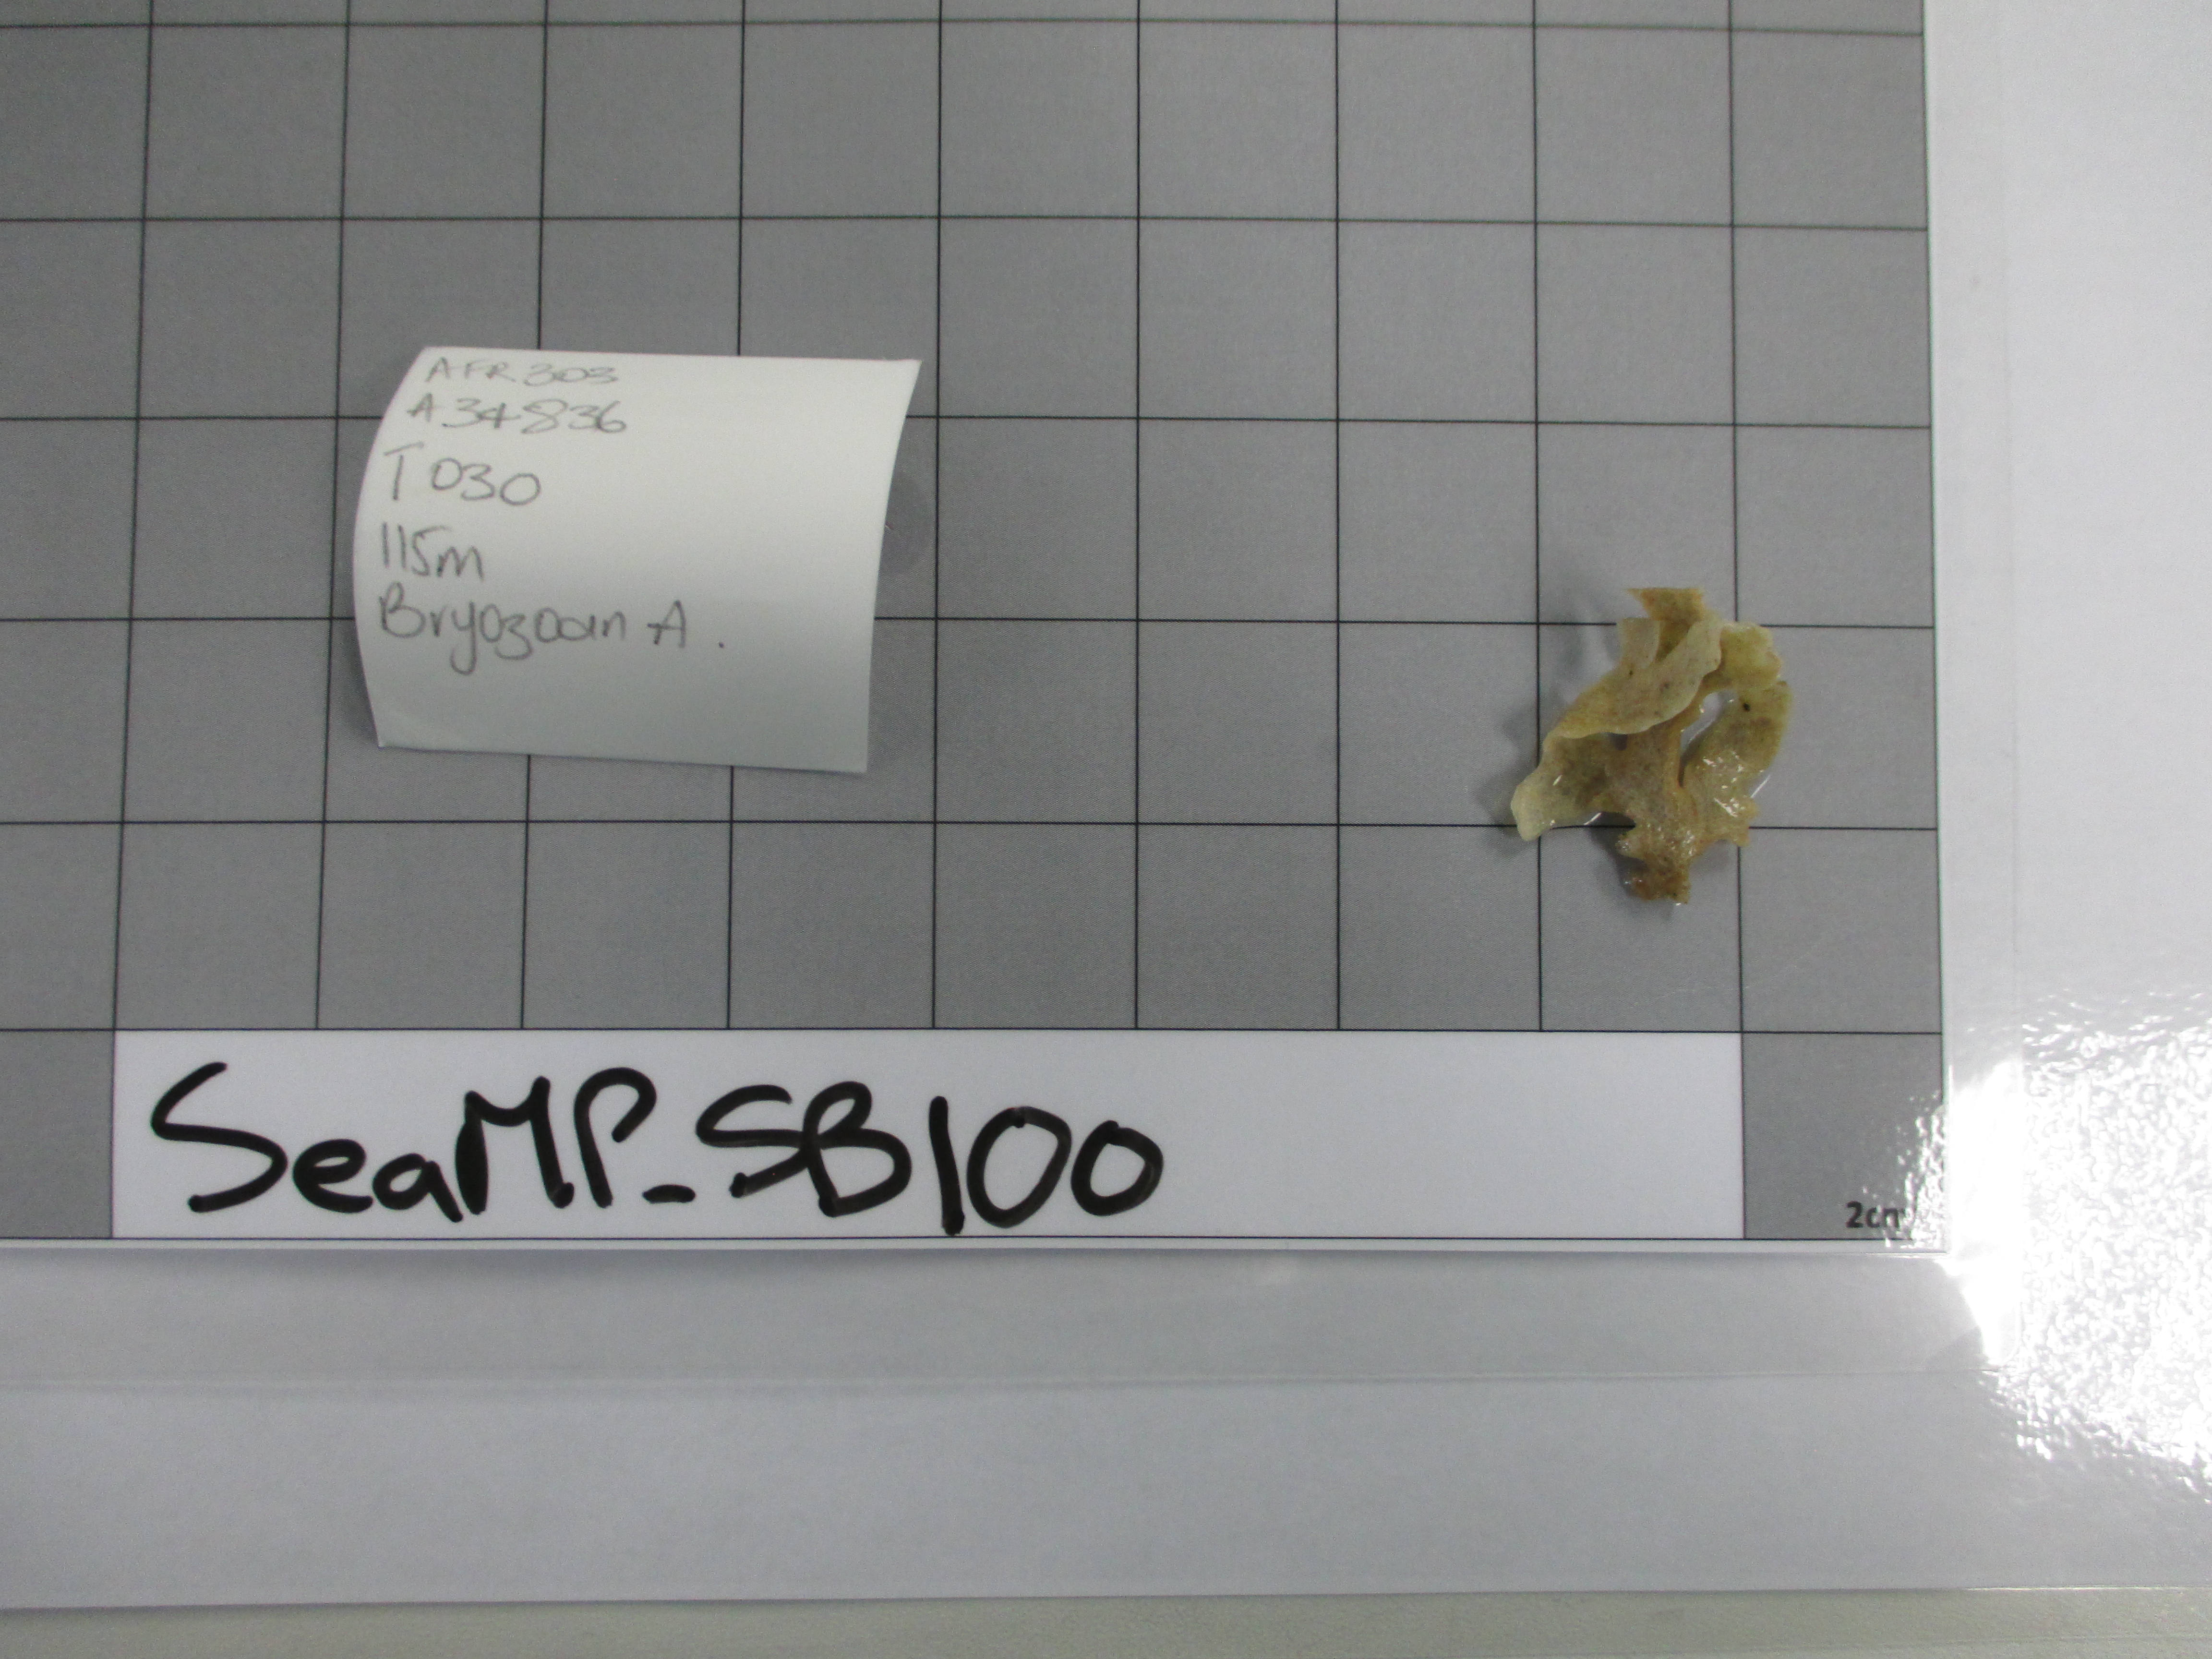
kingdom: Animalia
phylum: Cnidaria
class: Anthozoa
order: Actiniaria
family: Amphianthidae
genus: Amphianthus
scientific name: Amphianthus
